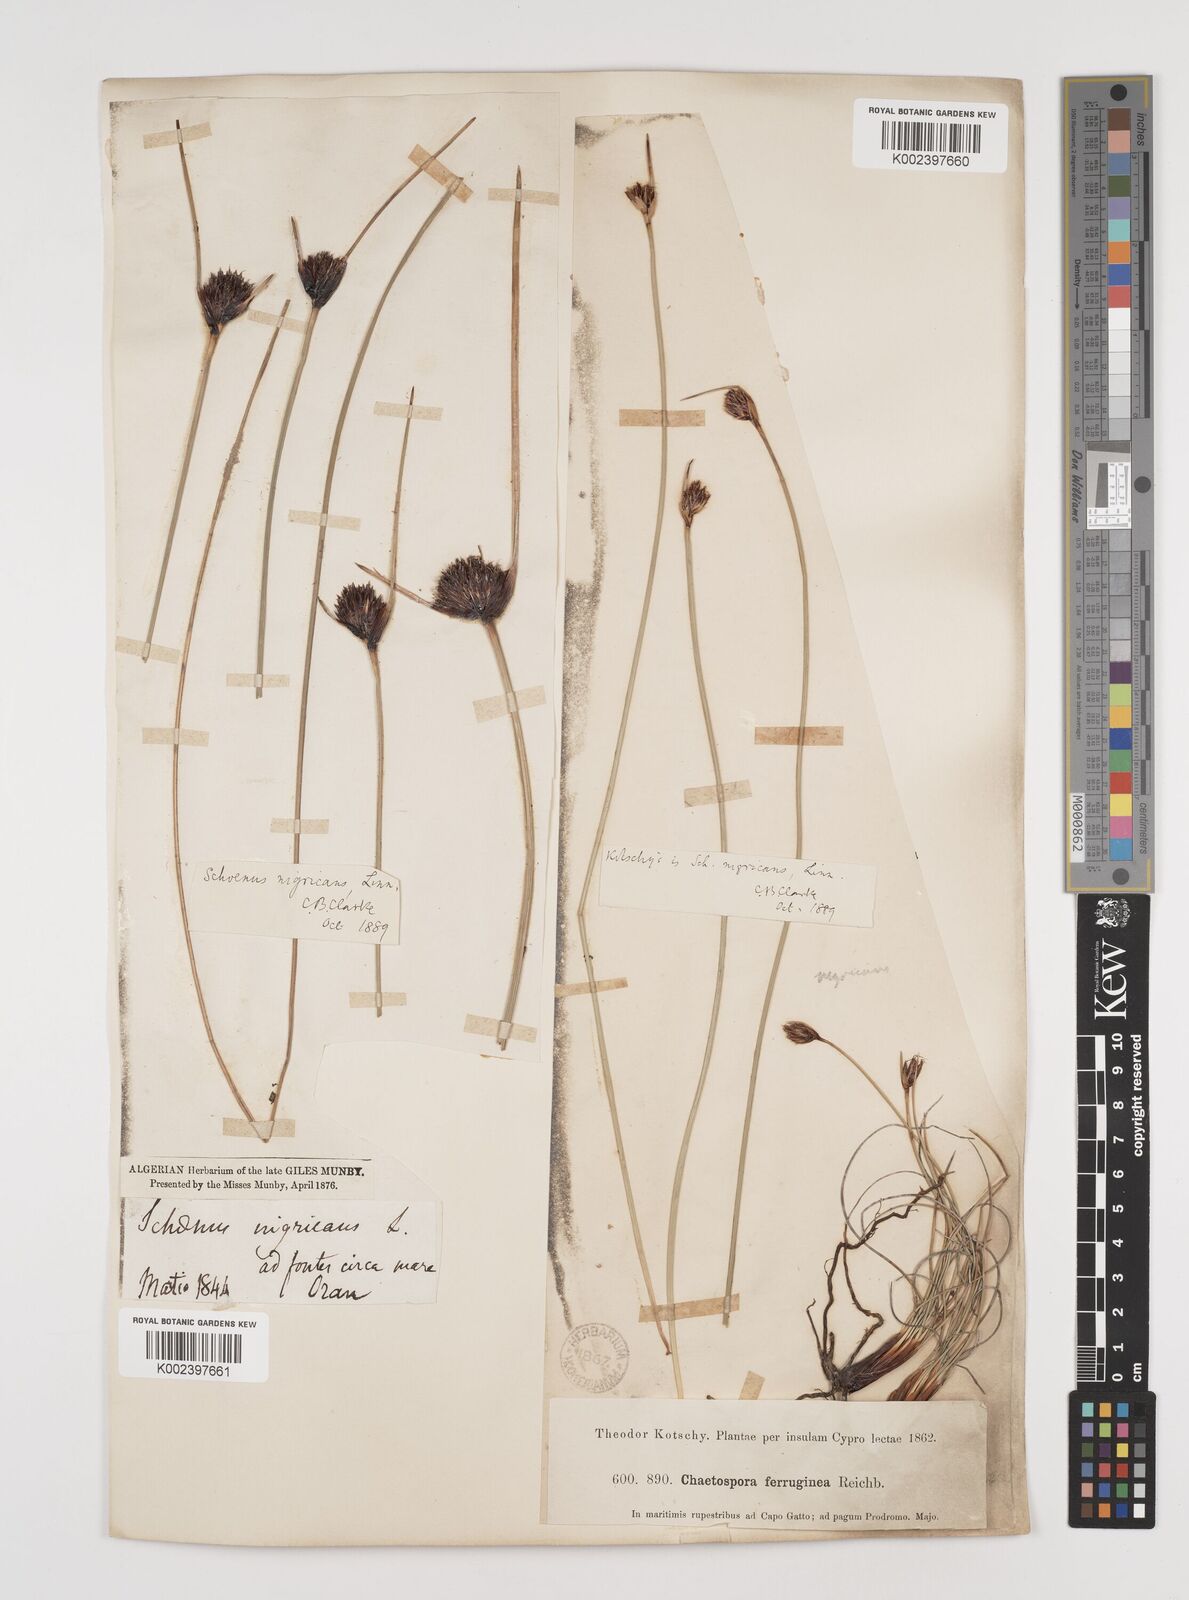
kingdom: Plantae
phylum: Tracheophyta
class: Liliopsida
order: Poales
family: Cyperaceae
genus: Schoenus
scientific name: Schoenus nigricans
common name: Black bog-rush
